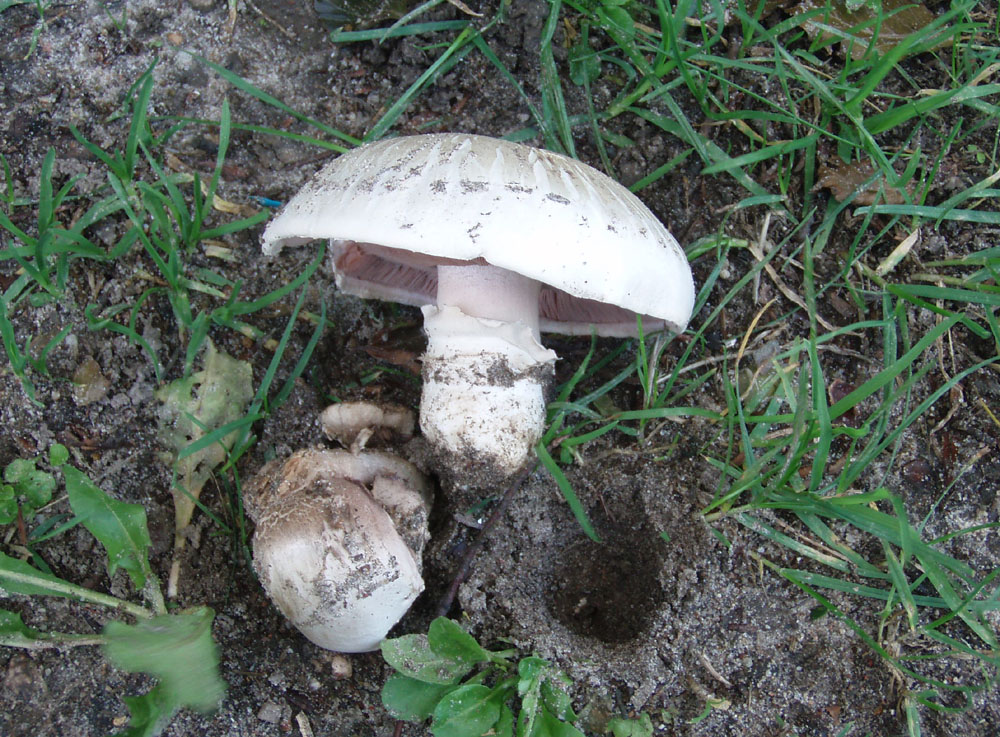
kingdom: Fungi
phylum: Basidiomycota
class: Agaricomycetes
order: Agaricales
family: Agaricaceae
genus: Agaricus
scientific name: Agaricus bitorquis
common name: vej-champignon
